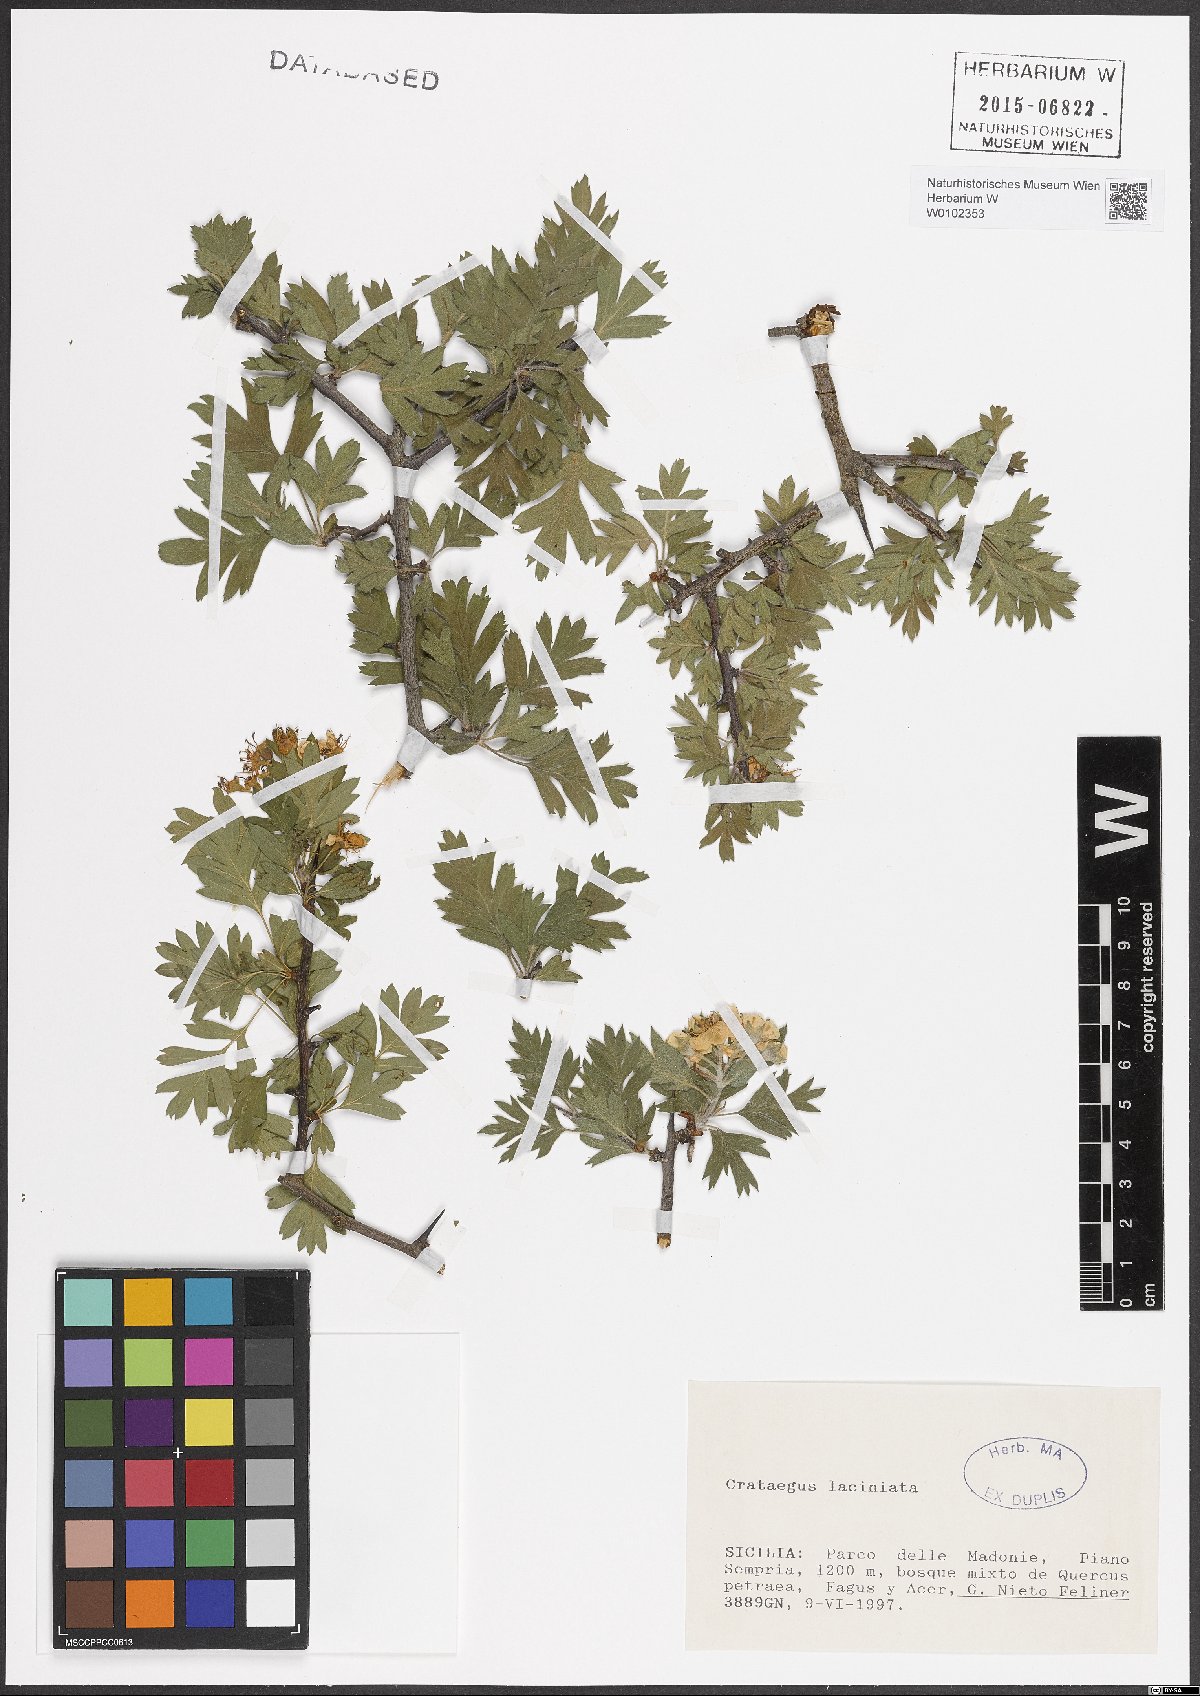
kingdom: Plantae
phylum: Tracheophyta
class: Magnoliopsida
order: Rosales
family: Rosaceae
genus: Crataegus
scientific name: Crataegus laciniata
